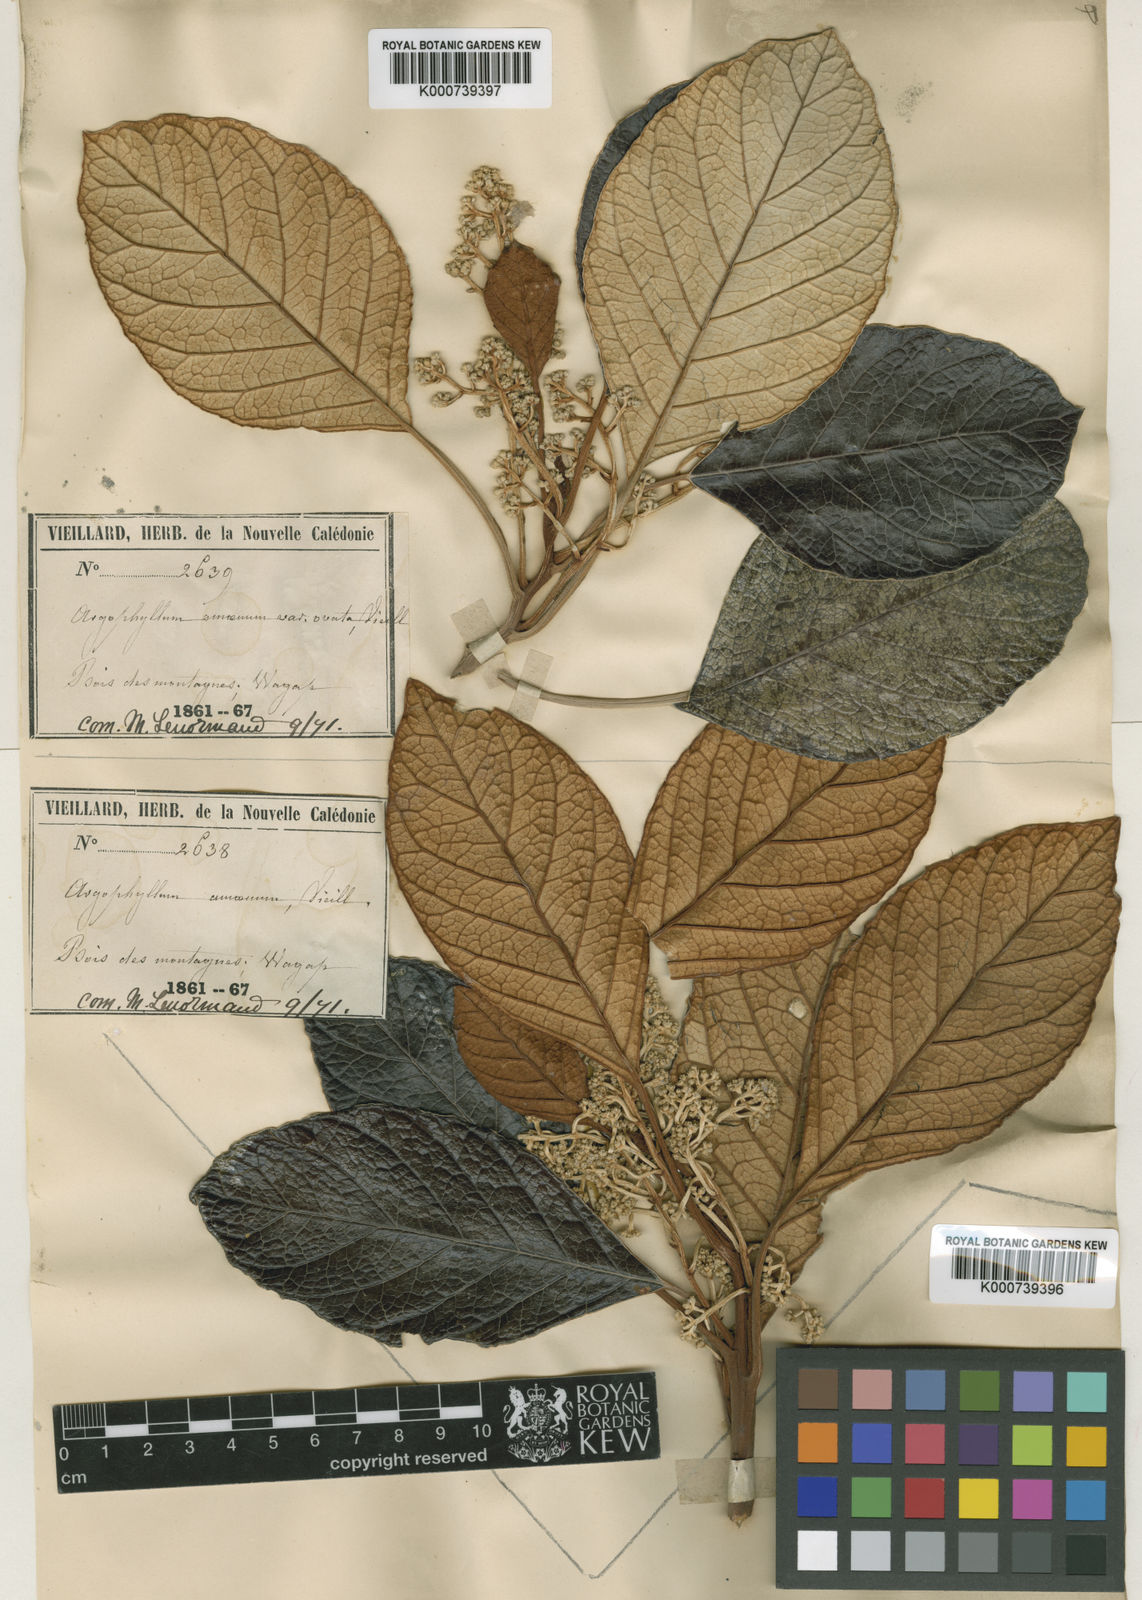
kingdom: Plantae
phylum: Tracheophyta
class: Magnoliopsida
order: Asterales
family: Argophyllaceae
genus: Argophyllum
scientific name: Argophyllum
